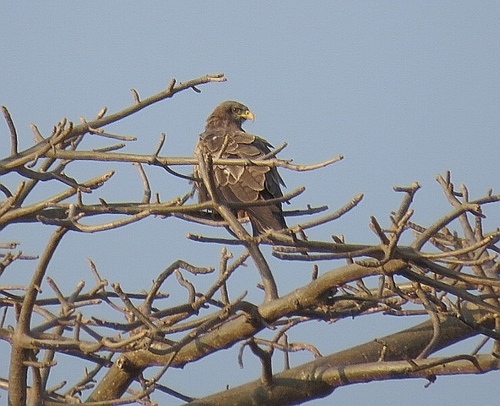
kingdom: Animalia
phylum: Chordata
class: Aves
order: Accipitriformes
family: Accipitridae
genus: Milvus
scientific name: Milvus migrans
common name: Black kite
